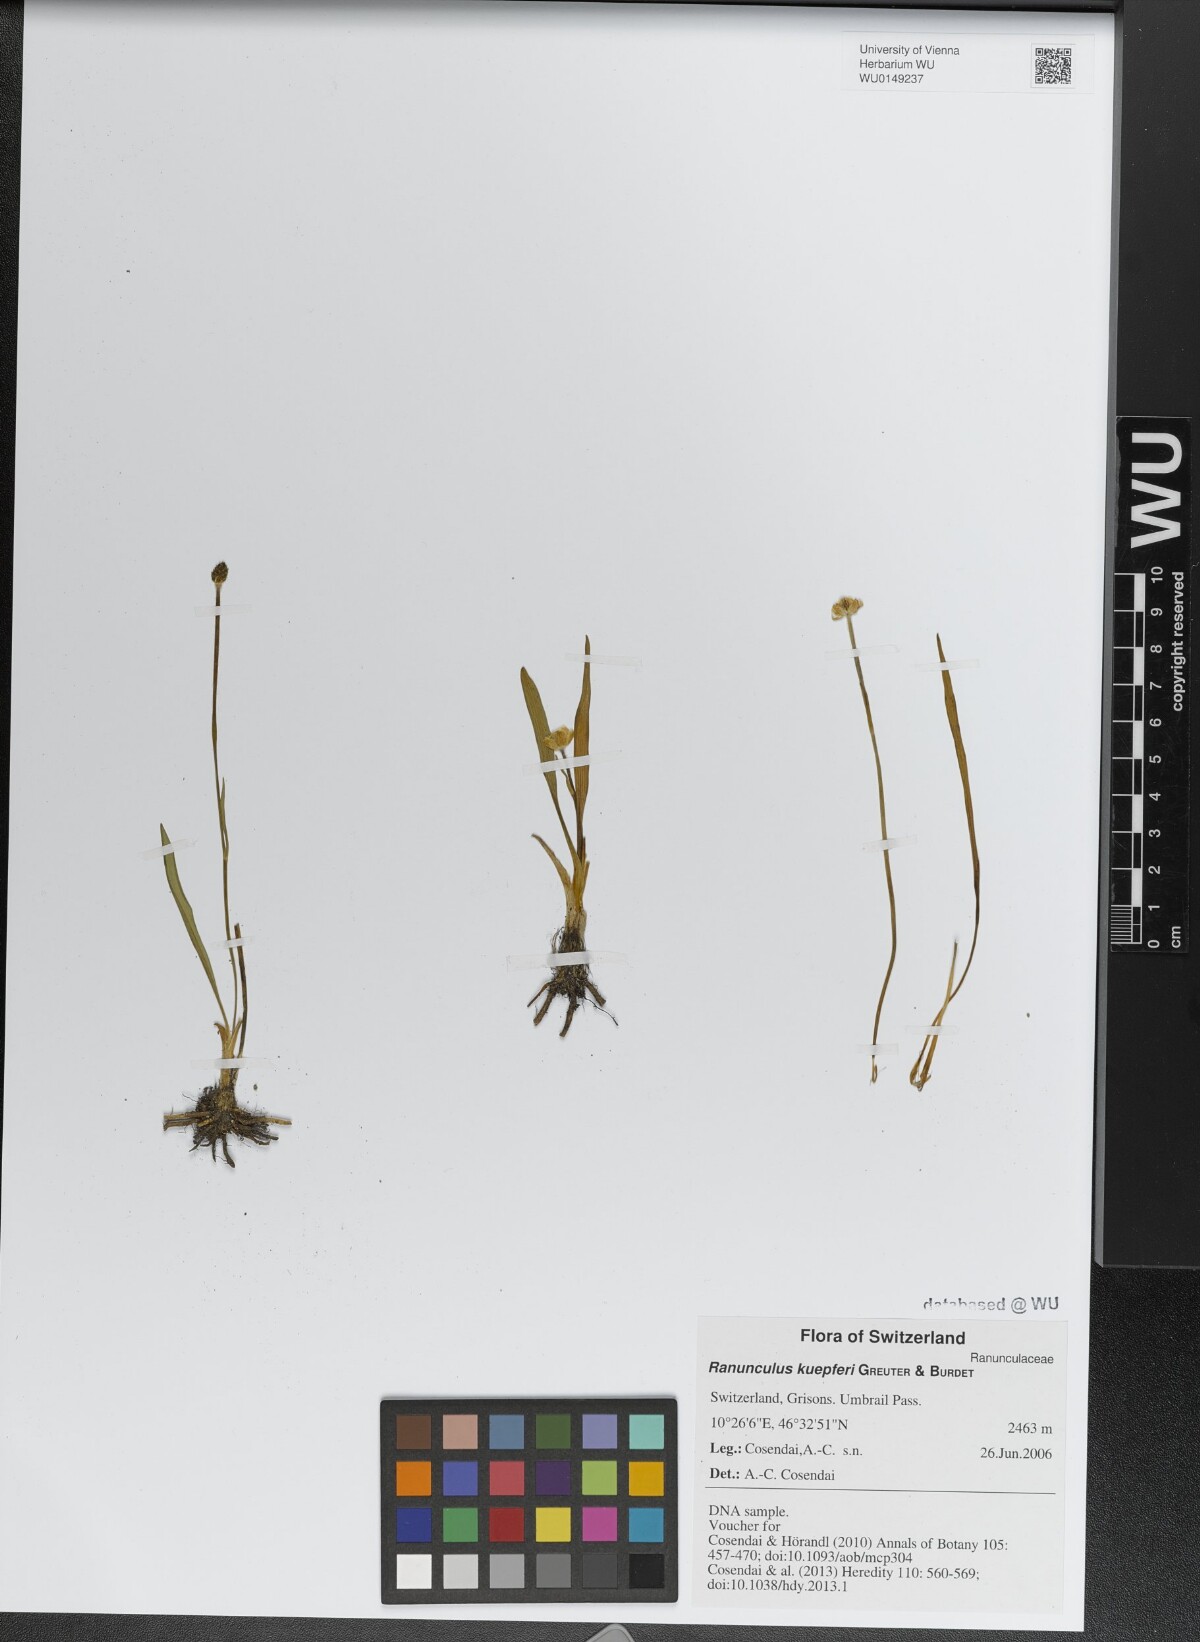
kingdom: Plantae
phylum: Tracheophyta
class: Magnoliopsida
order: Ranunculales
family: Ranunculaceae
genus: Ranunculus
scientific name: Ranunculus kuepferi
